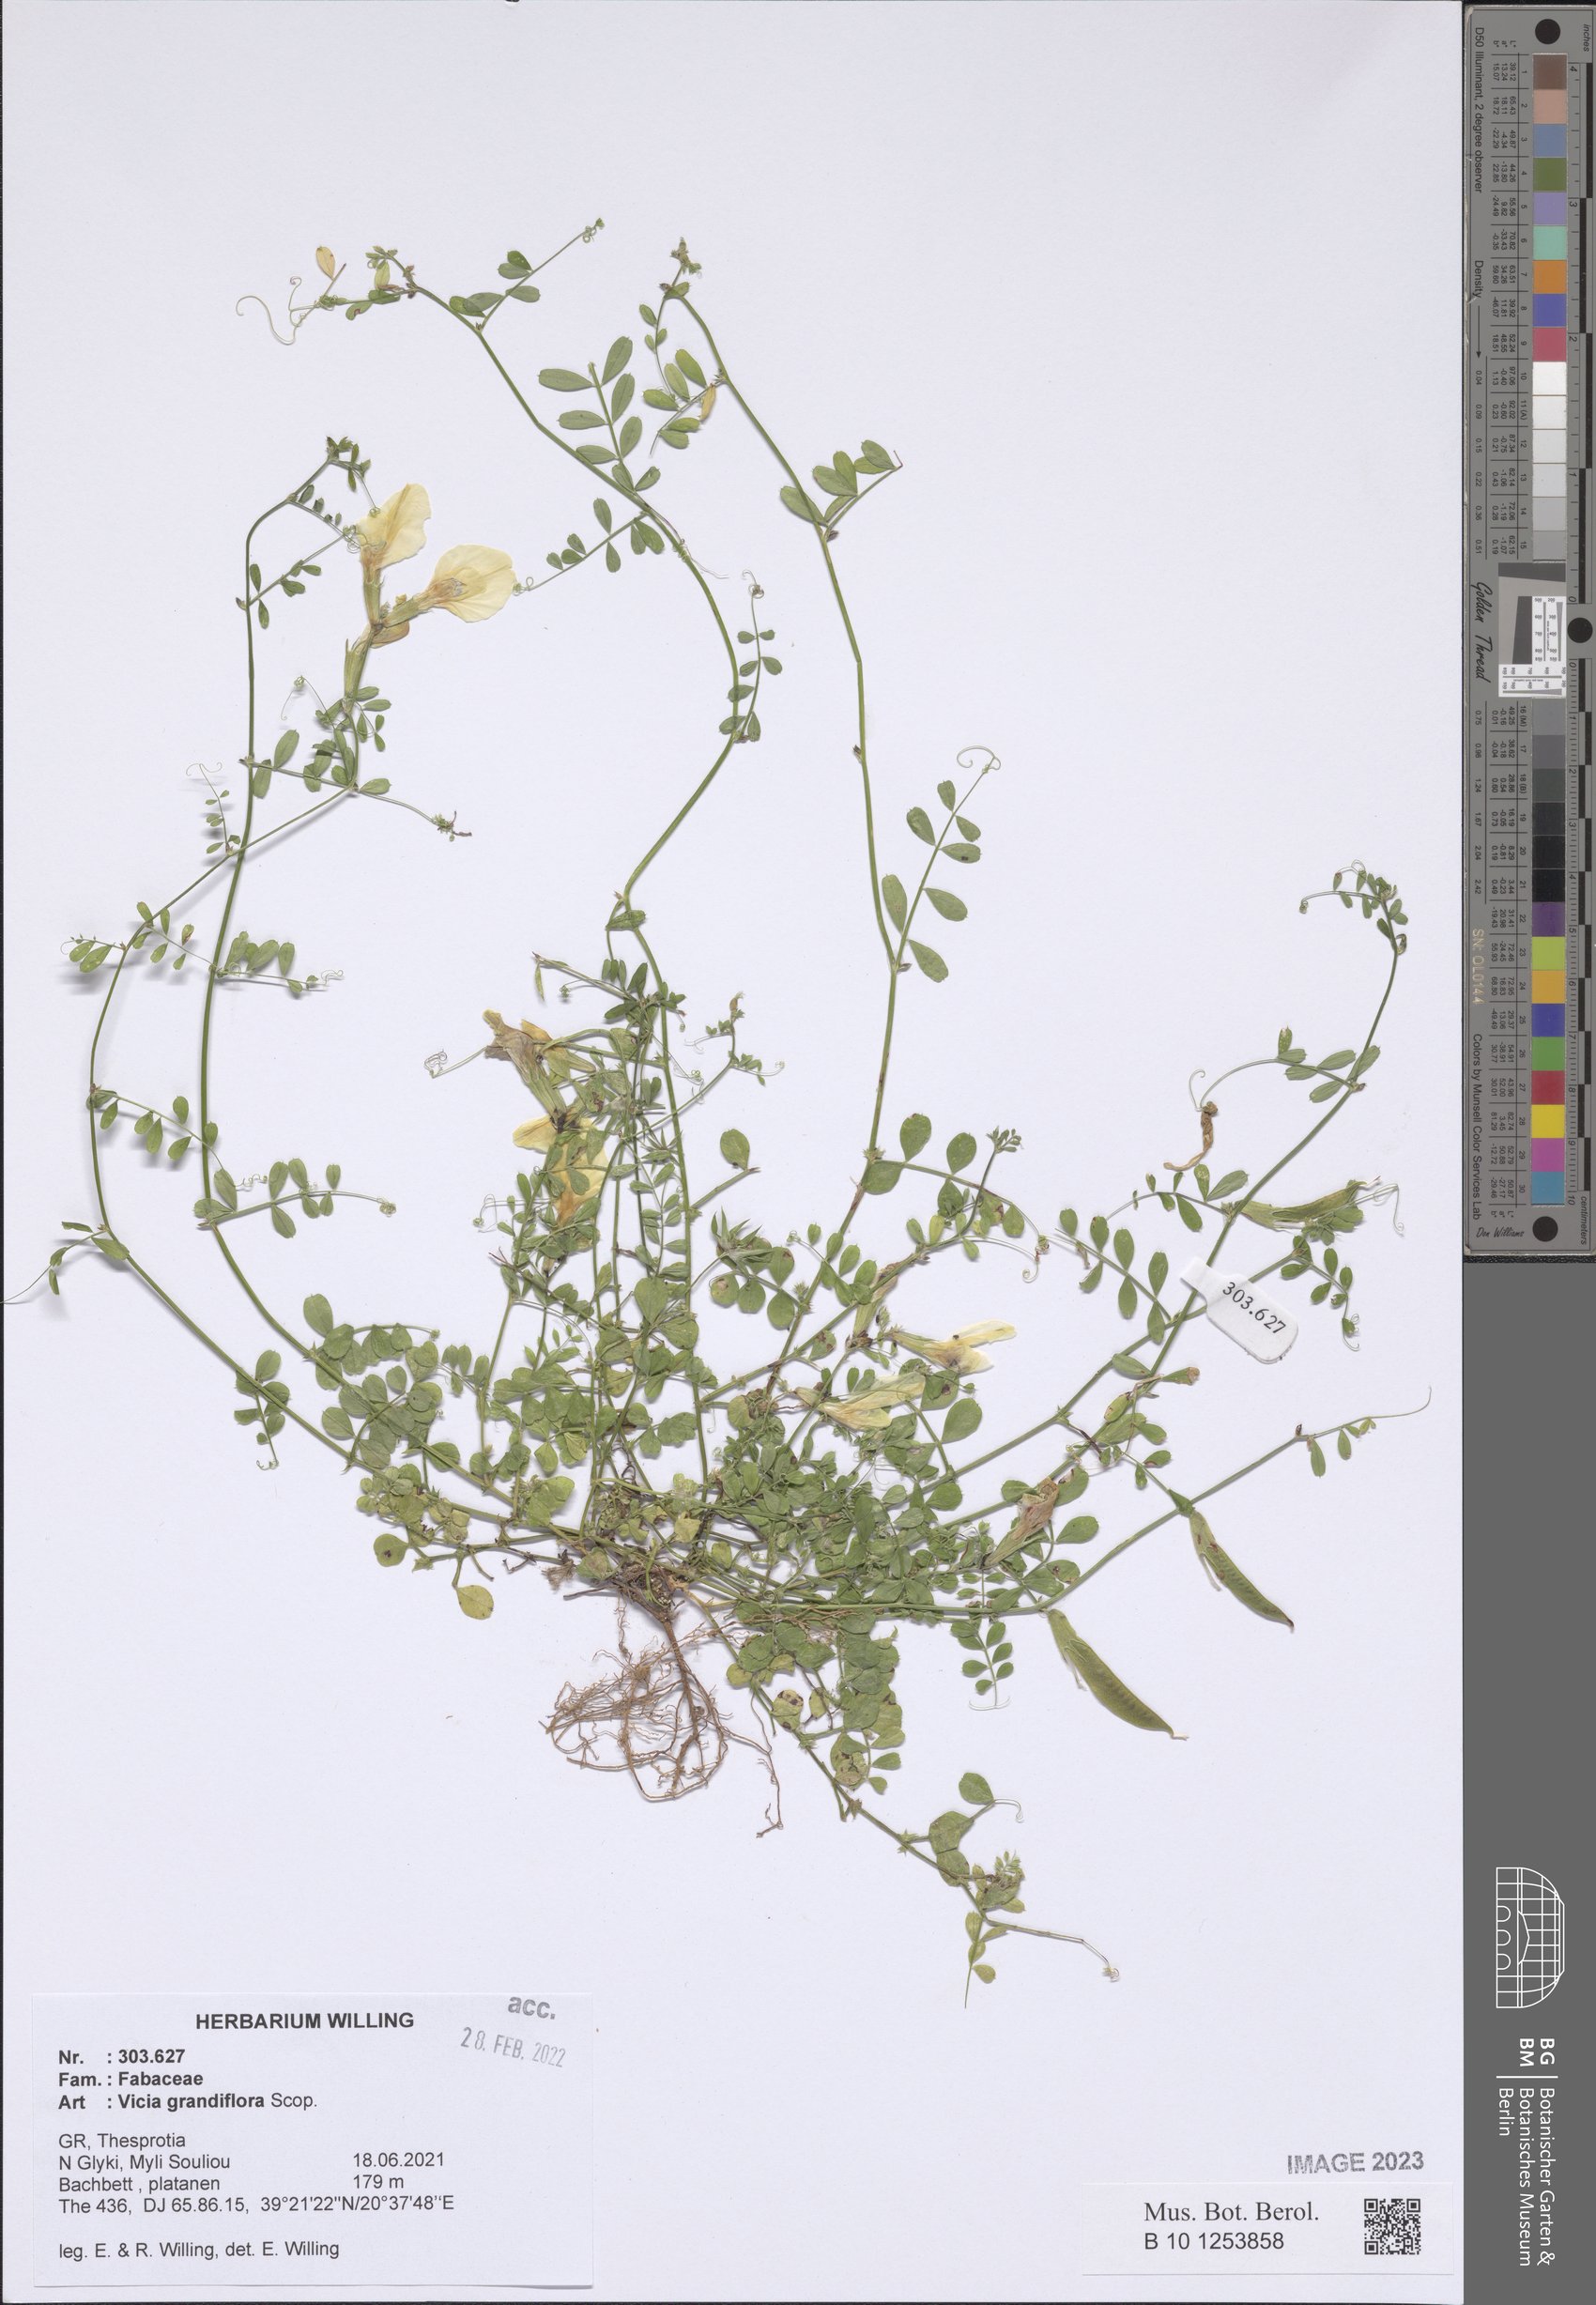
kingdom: Plantae
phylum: Tracheophyta
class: Magnoliopsida
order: Fabales
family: Fabaceae
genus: Vicia
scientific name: Vicia grandiflora
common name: Large yellow vetch
